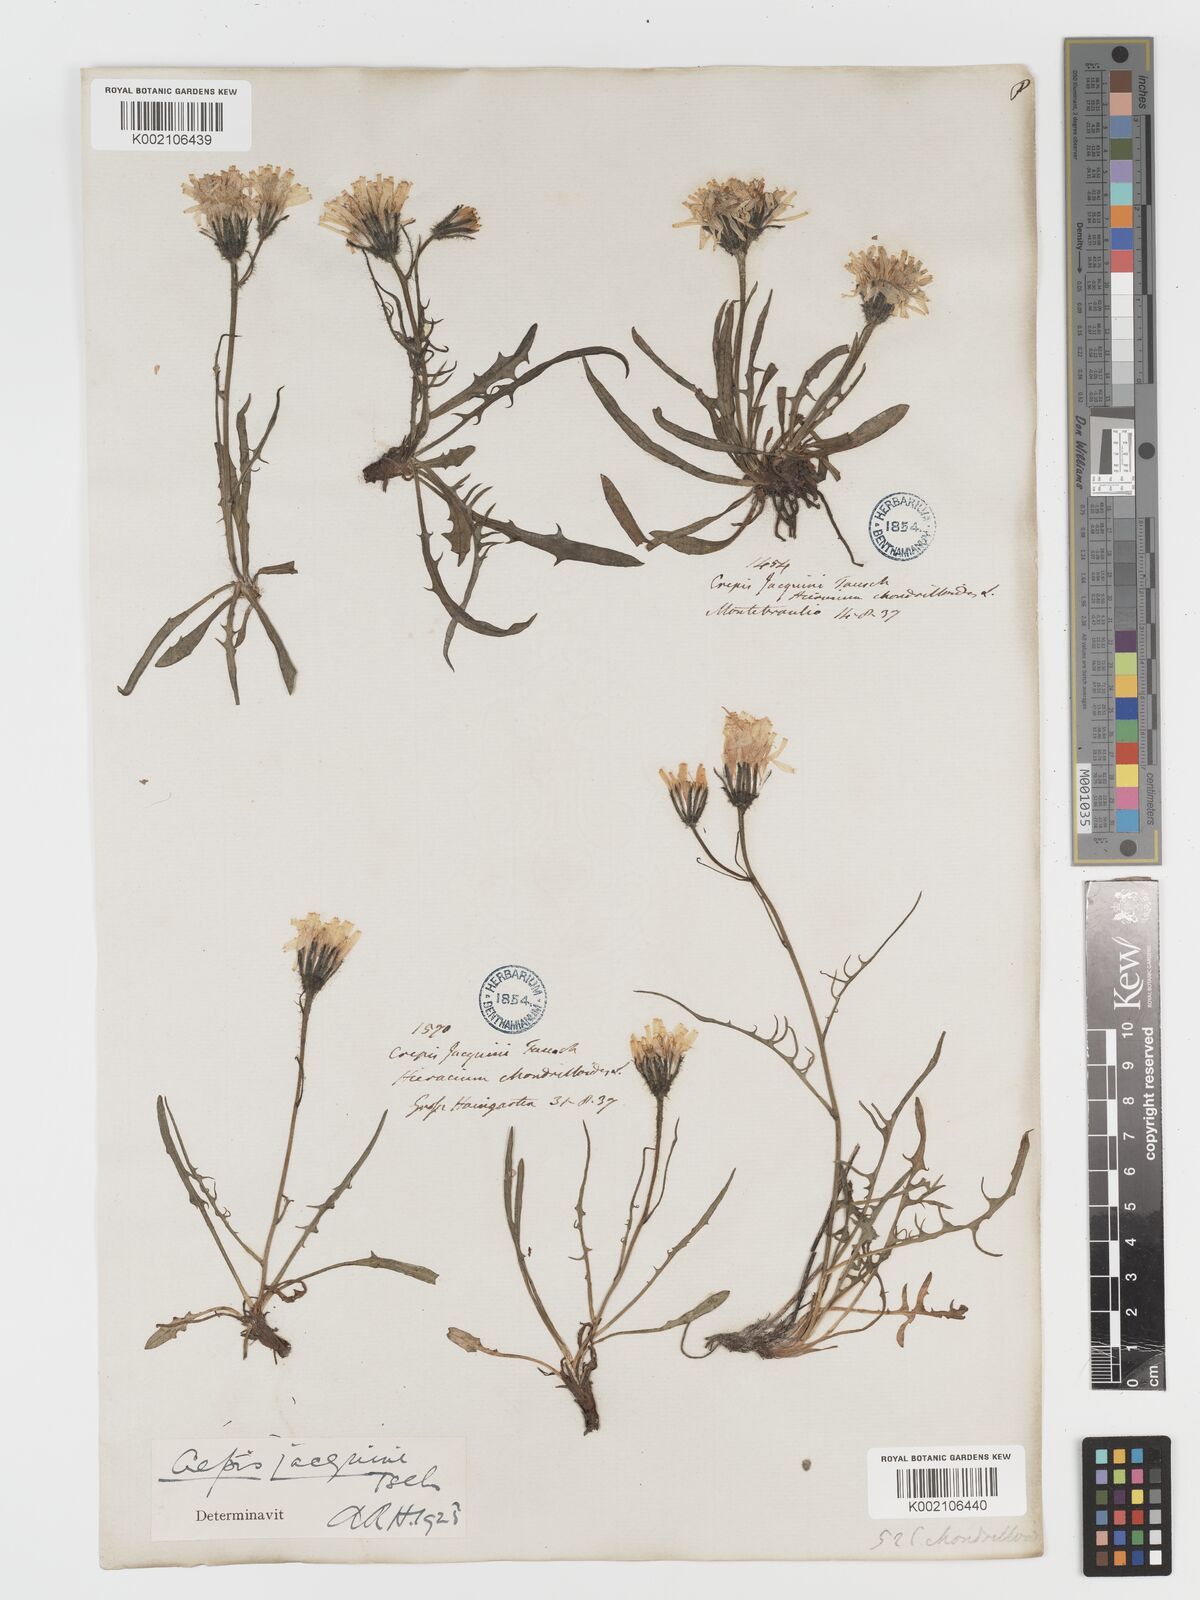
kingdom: Plantae
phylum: Tracheophyta
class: Magnoliopsida
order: Asterales
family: Asteraceae
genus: Crepis
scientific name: Crepis jacquinii
